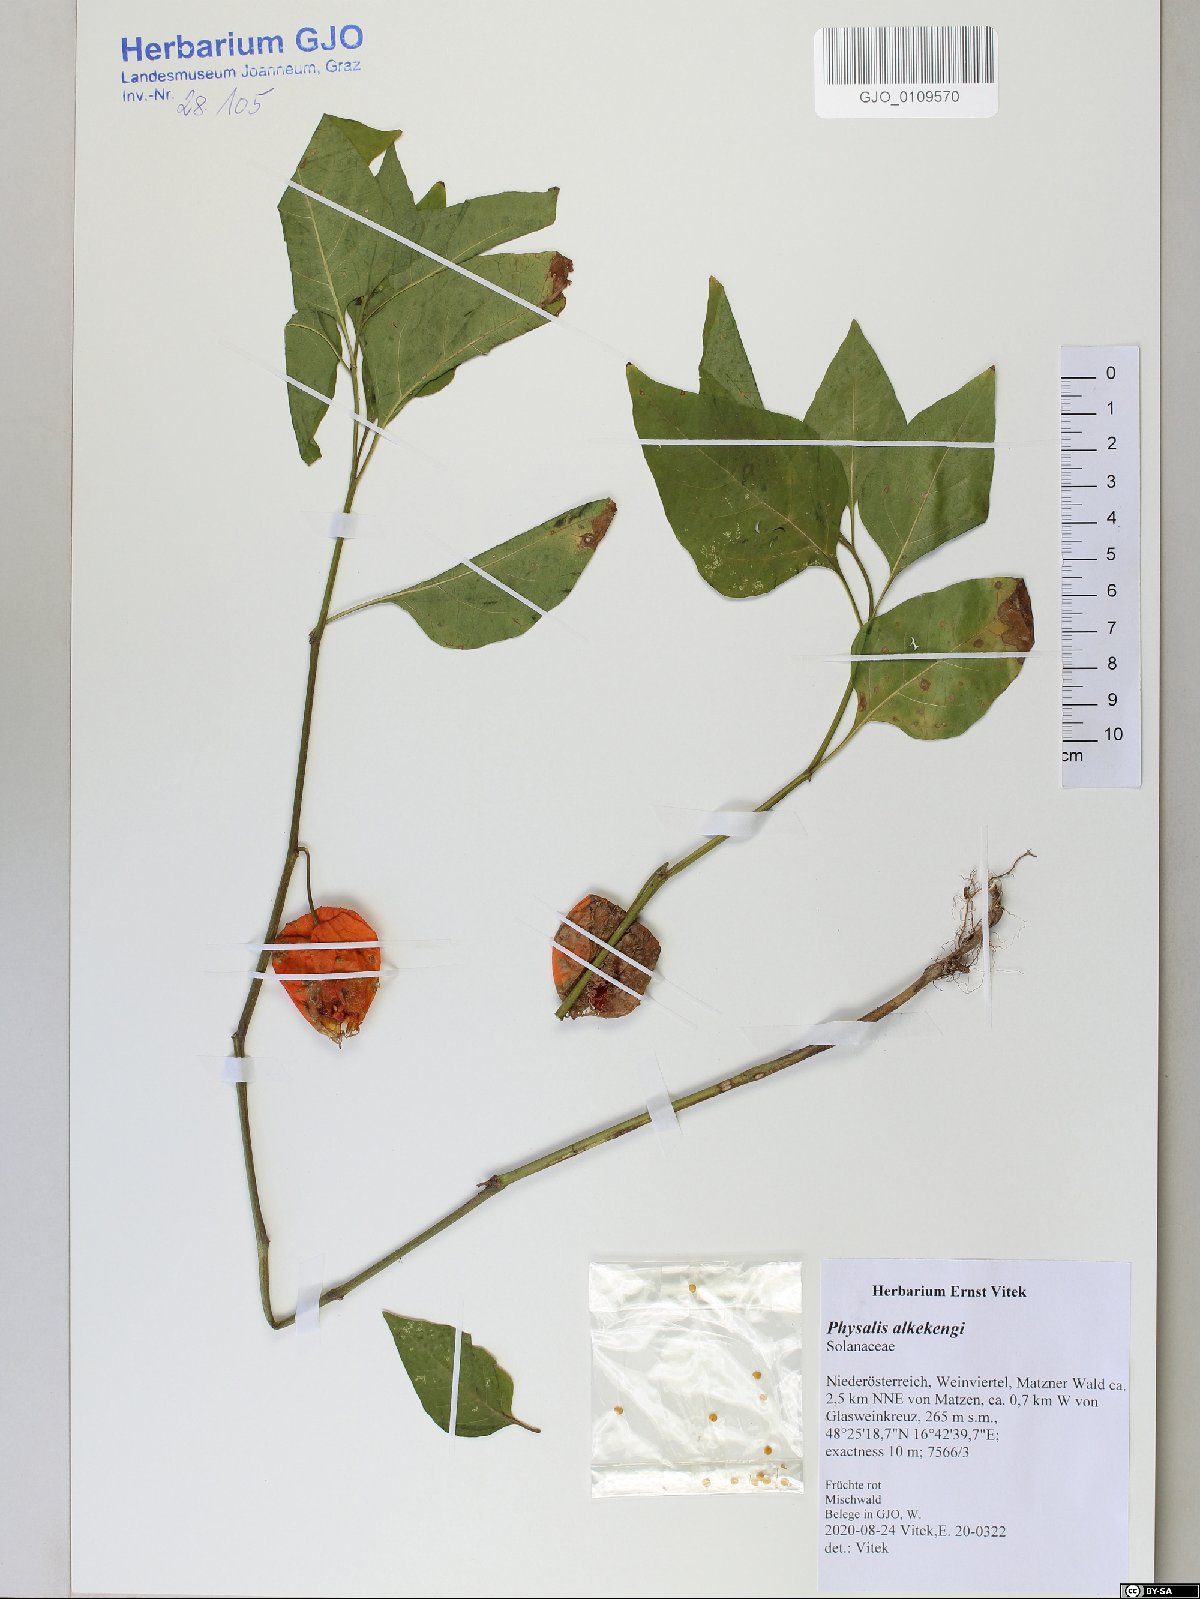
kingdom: Plantae
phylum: Tracheophyta
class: Magnoliopsida
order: Solanales
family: Solanaceae
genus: Alkekengi
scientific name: Alkekengi officinarum
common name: Japanese-lantern
